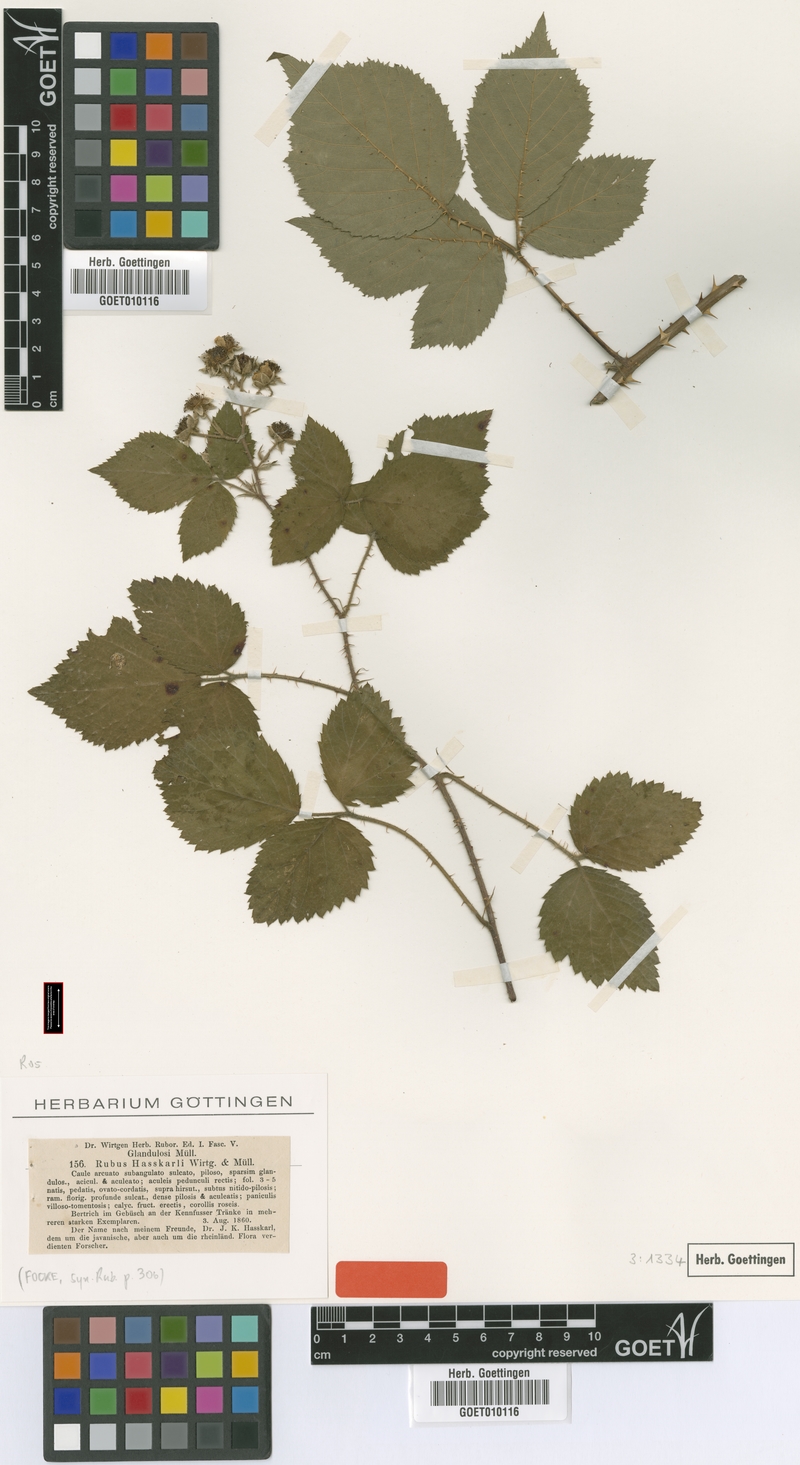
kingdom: Plantae
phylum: Tracheophyta
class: Magnoliopsida
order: Rosales
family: Rosaceae
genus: Rubus
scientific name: Rubus micans
